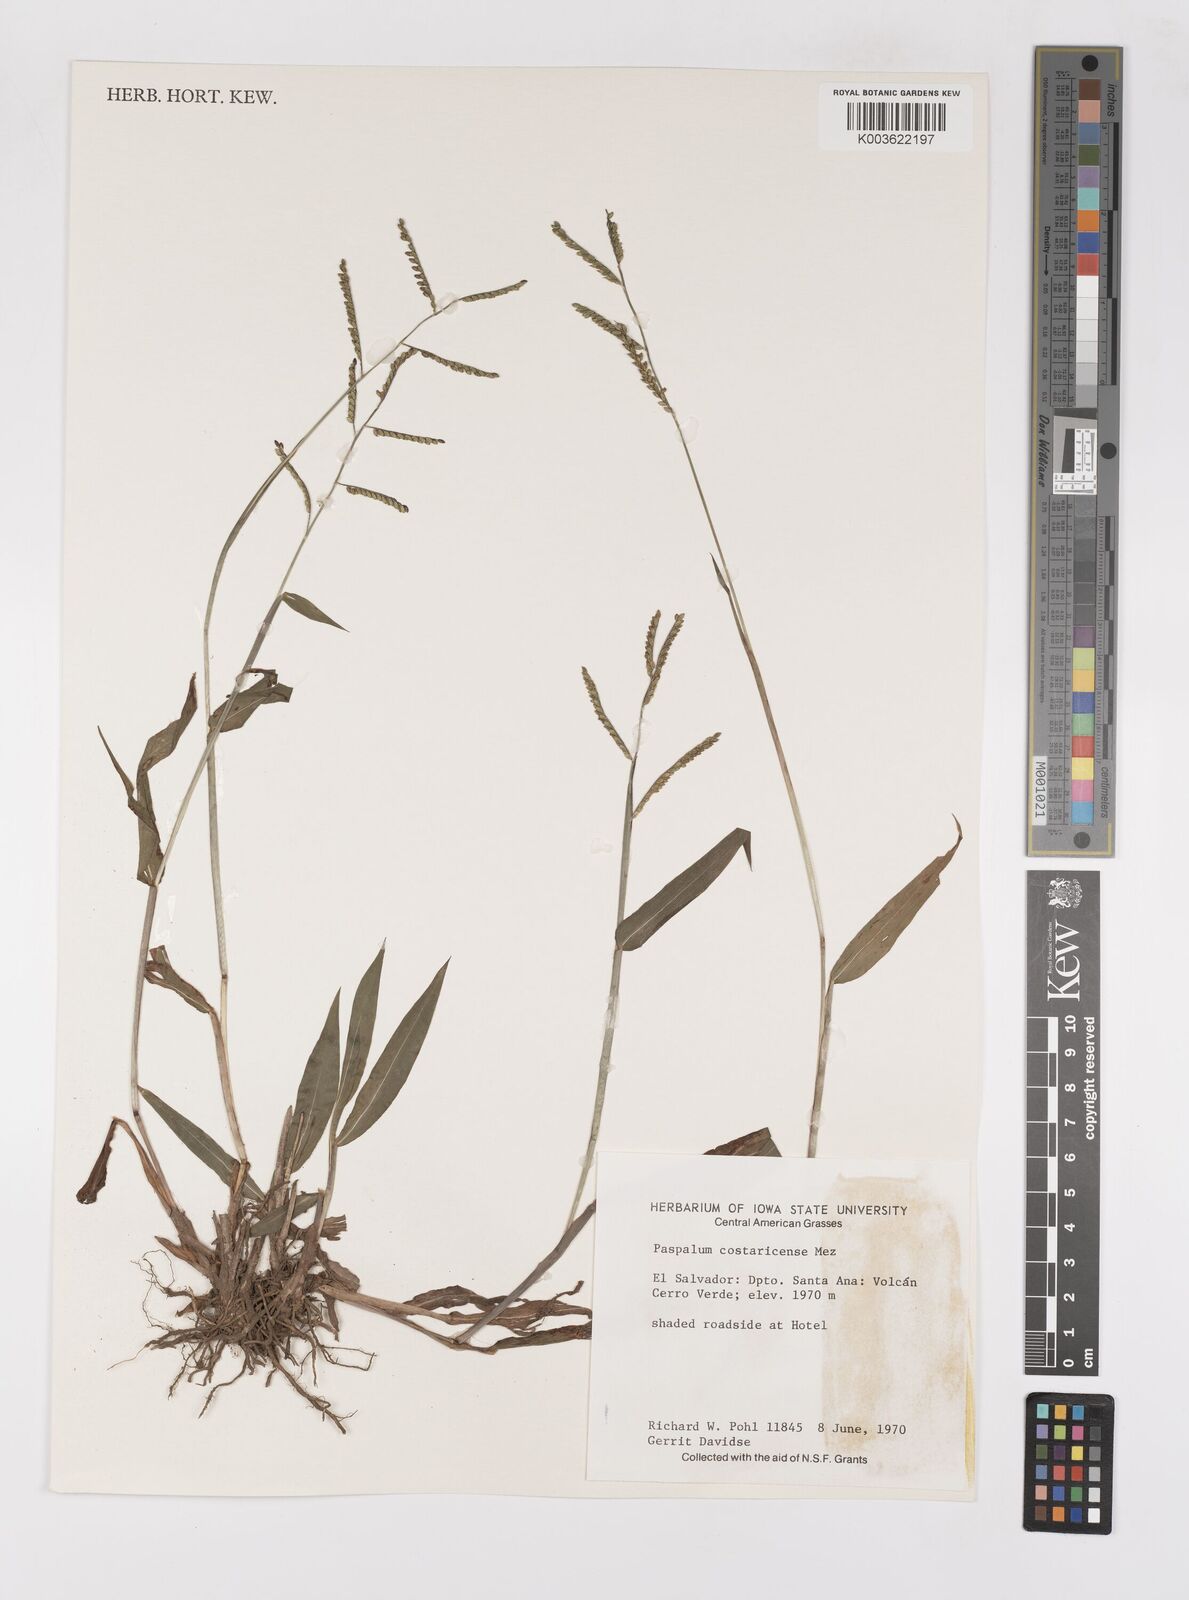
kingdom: Plantae
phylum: Tracheophyta
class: Liliopsida
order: Poales
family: Poaceae
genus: Paspalum
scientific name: Paspalum costaricense
